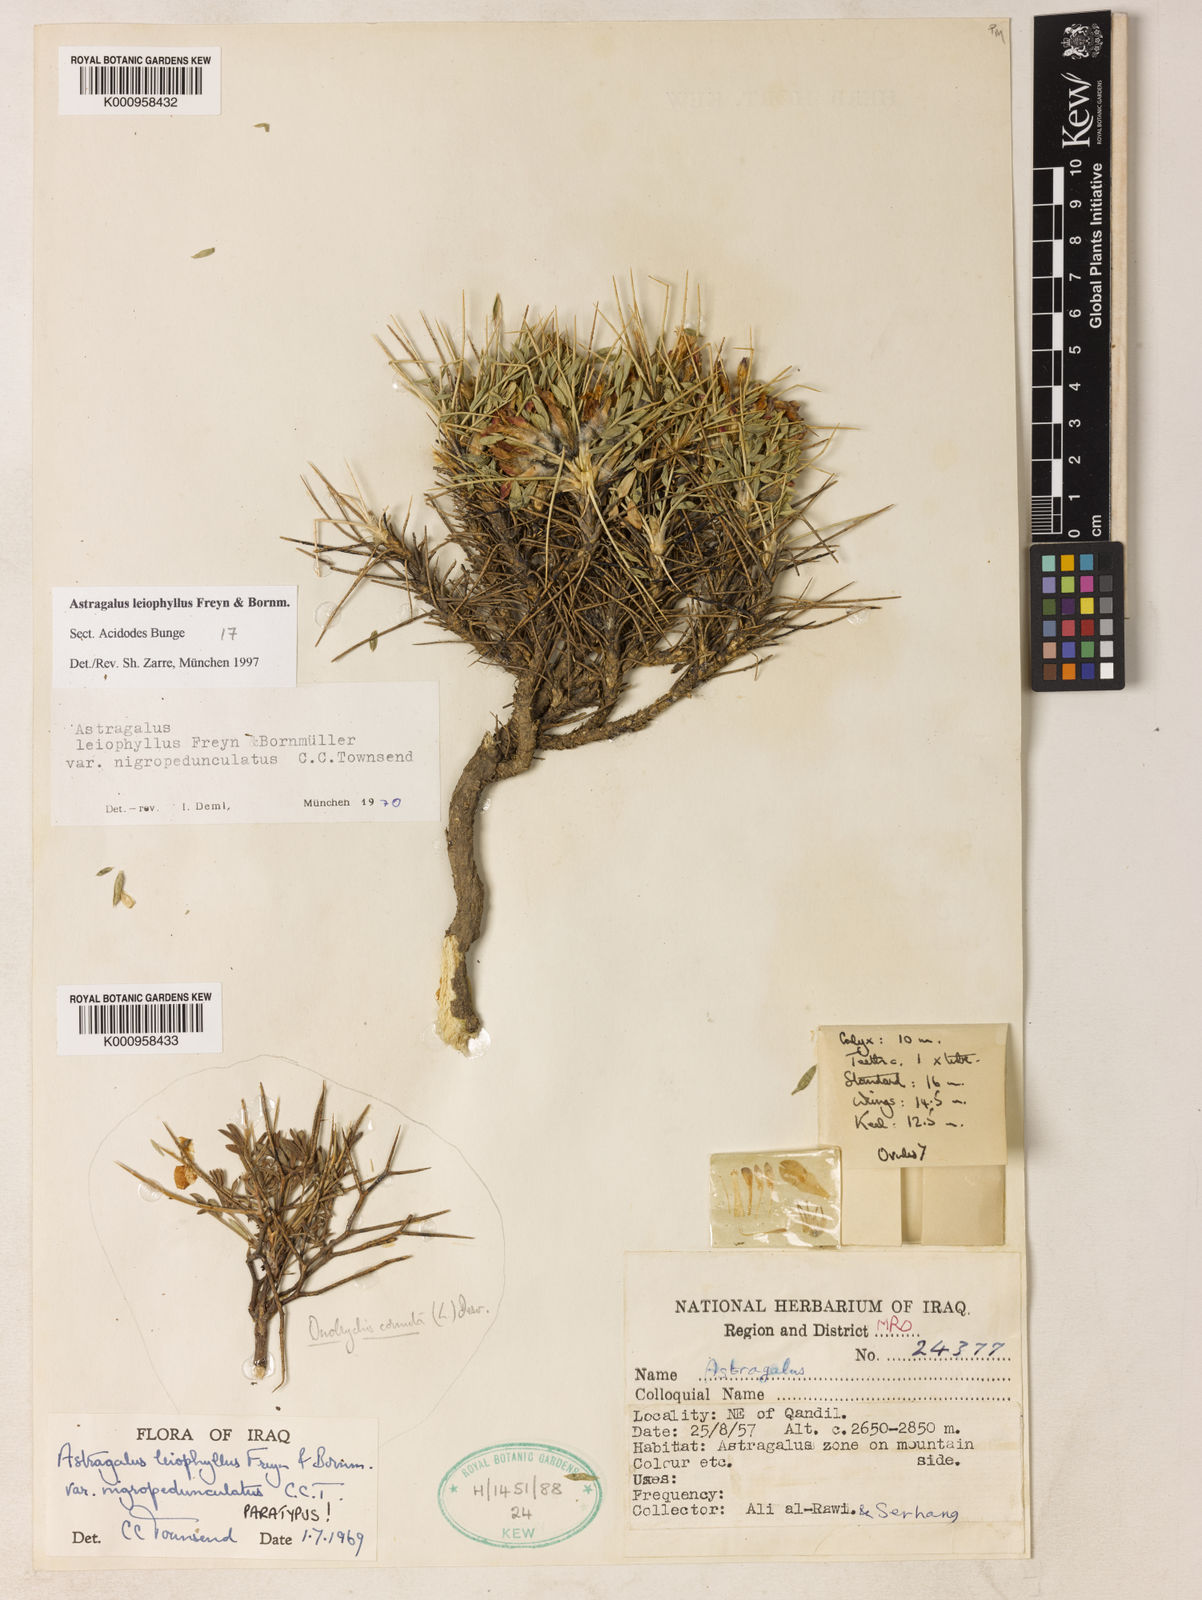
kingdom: Plantae
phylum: Tracheophyta
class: Magnoliopsida
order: Fabales
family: Fabaceae
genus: Astragalus
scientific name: Astragalus leiophyllus
